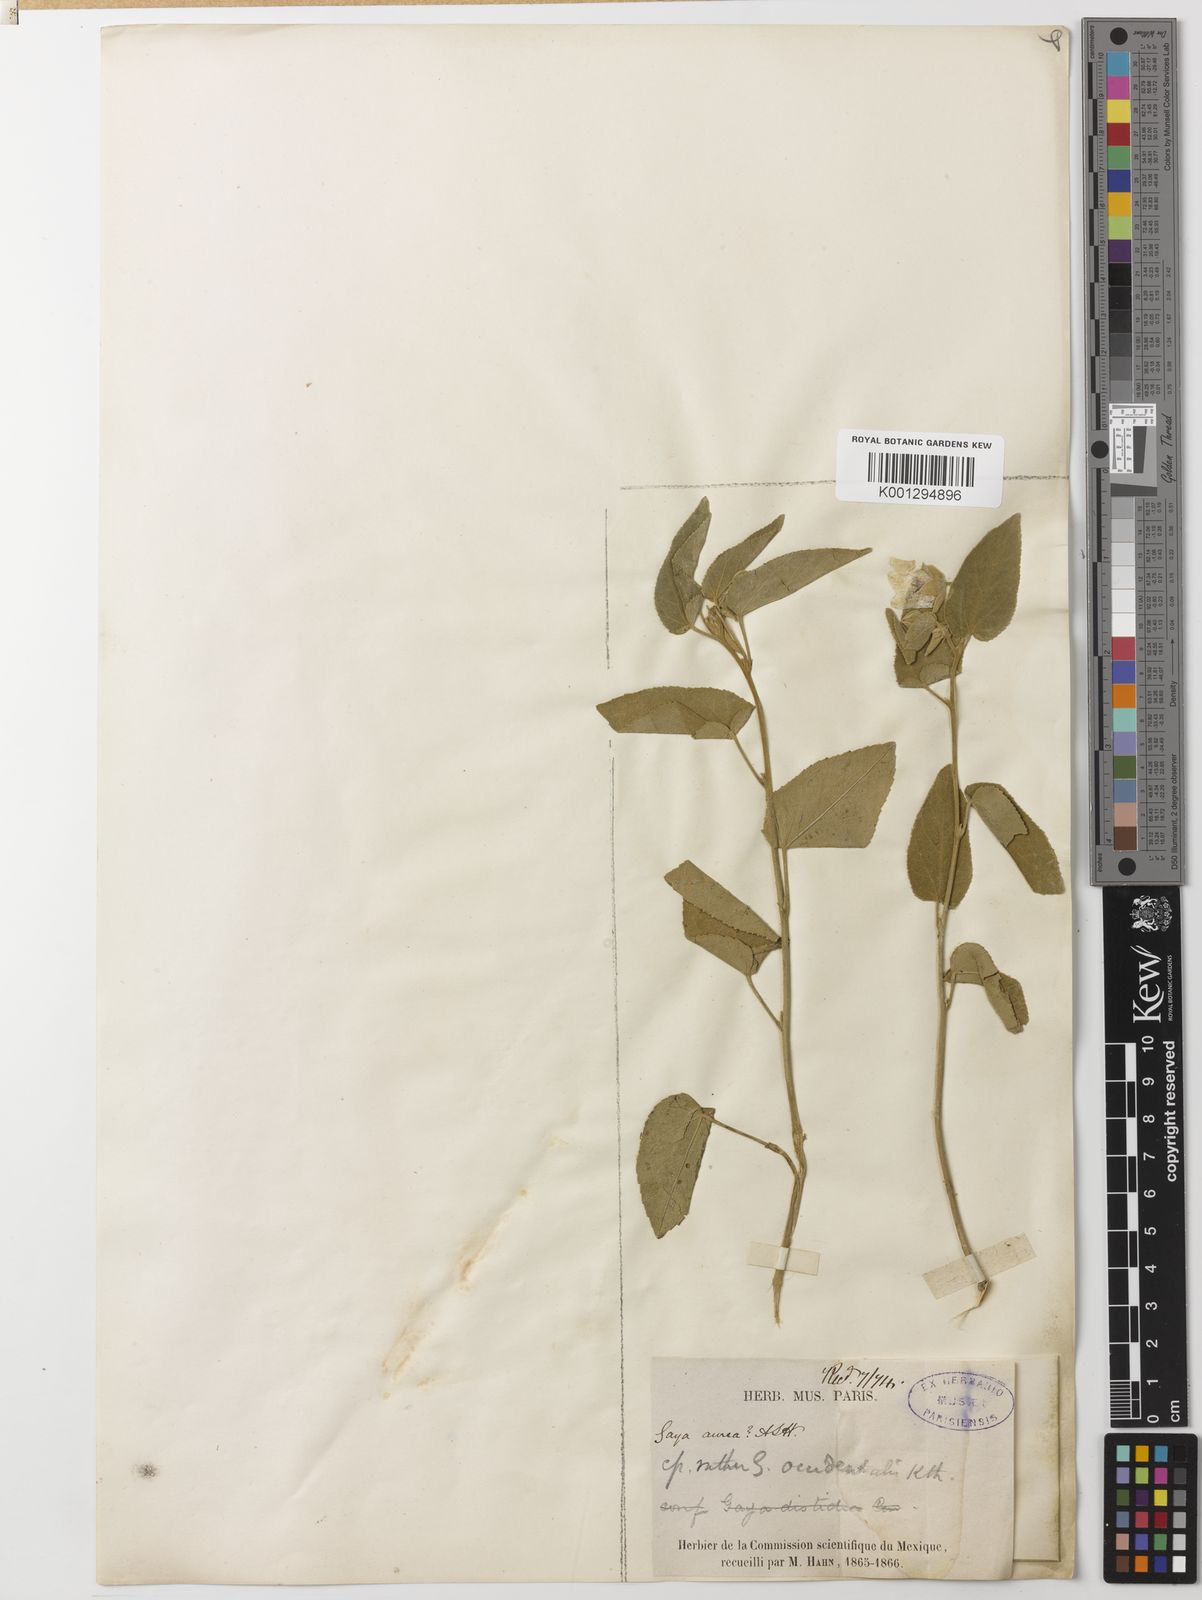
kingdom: Plantae
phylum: Tracheophyta
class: Magnoliopsida
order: Malvales
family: Malvaceae
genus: Gaya
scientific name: Gaya occidentalis
